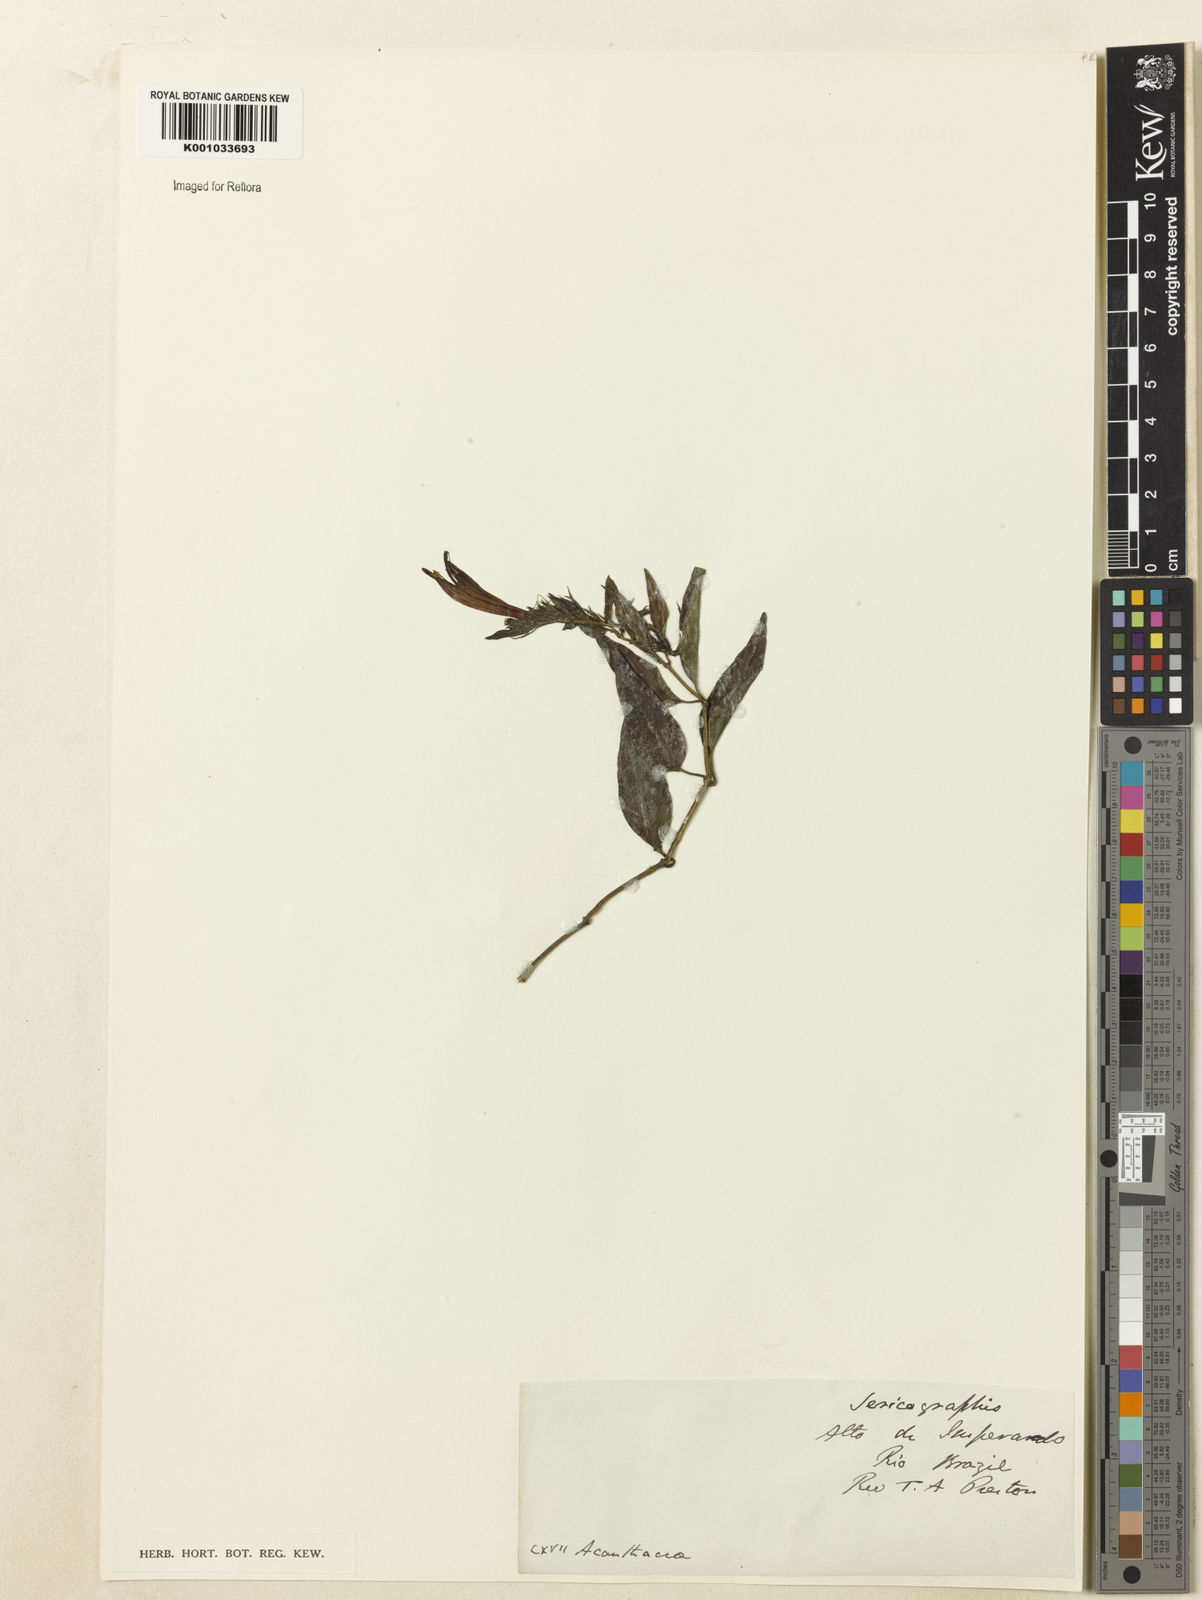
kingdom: Plantae
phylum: Tracheophyta
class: Magnoliopsida
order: Lamiales
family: Acanthaceae
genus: Justicia
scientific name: Justicia
